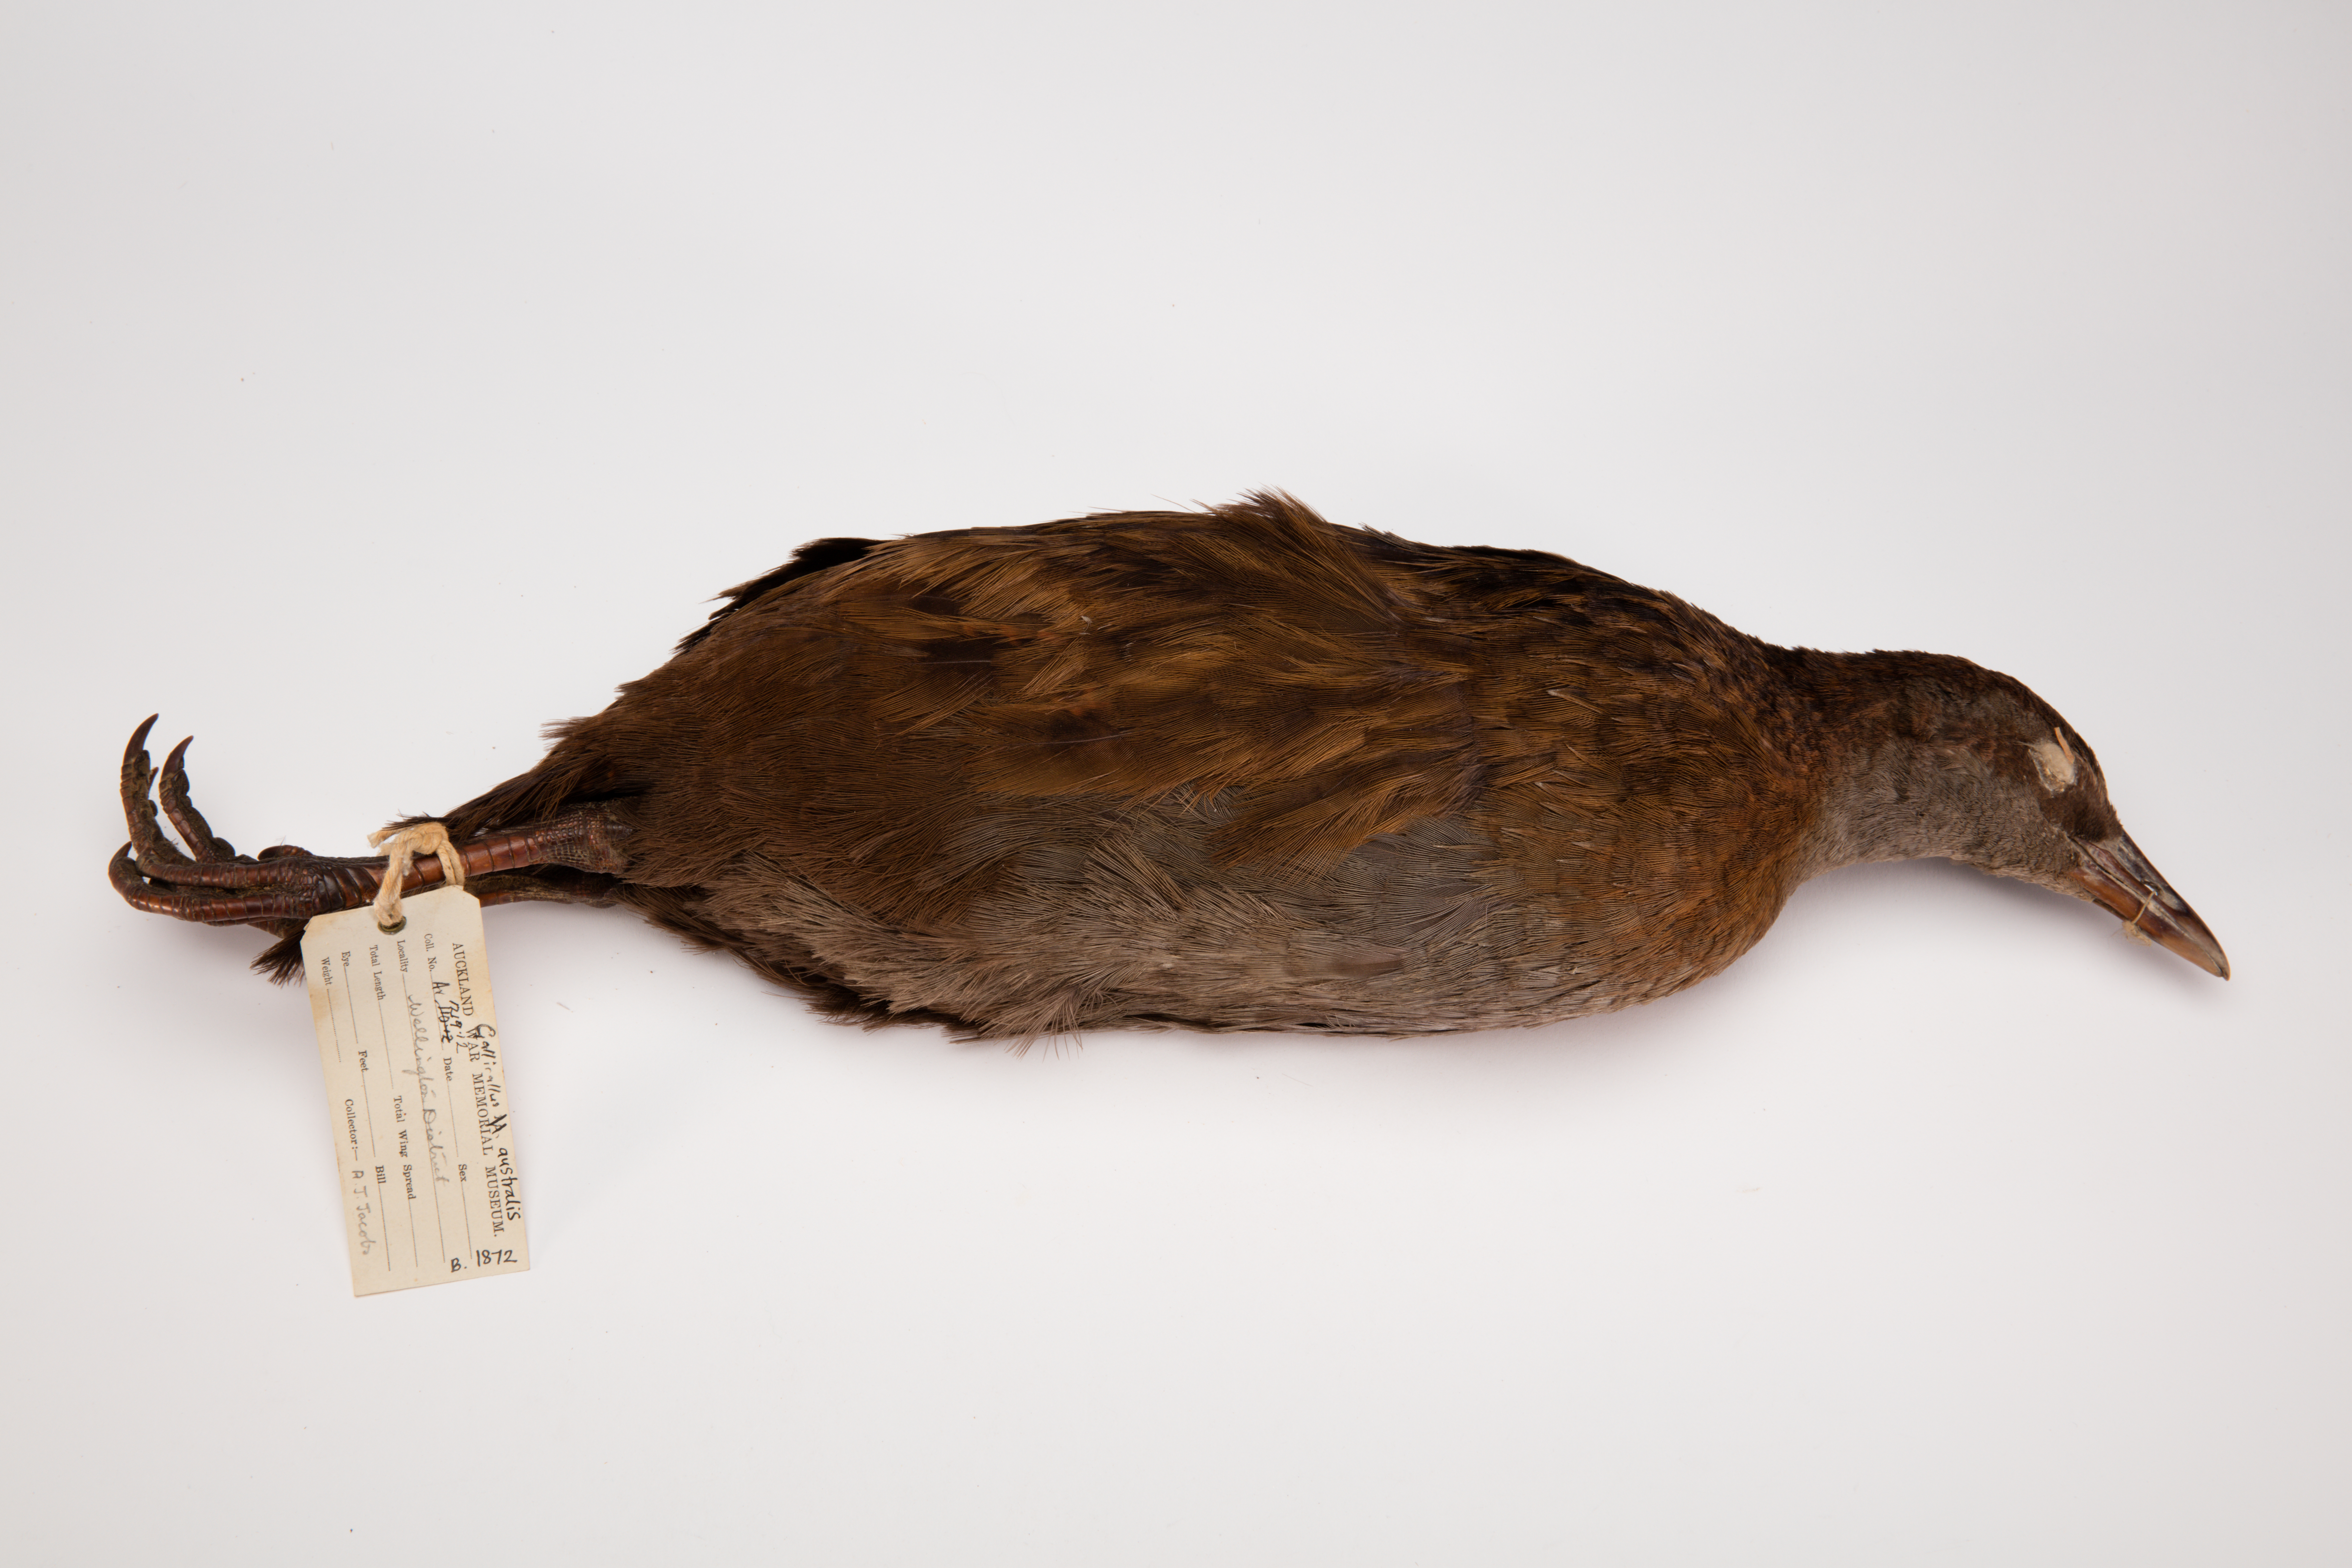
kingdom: Animalia
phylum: Chordata
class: Aves
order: Gruiformes
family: Rallidae
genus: Gallirallus
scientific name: Gallirallus australis
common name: Weka
